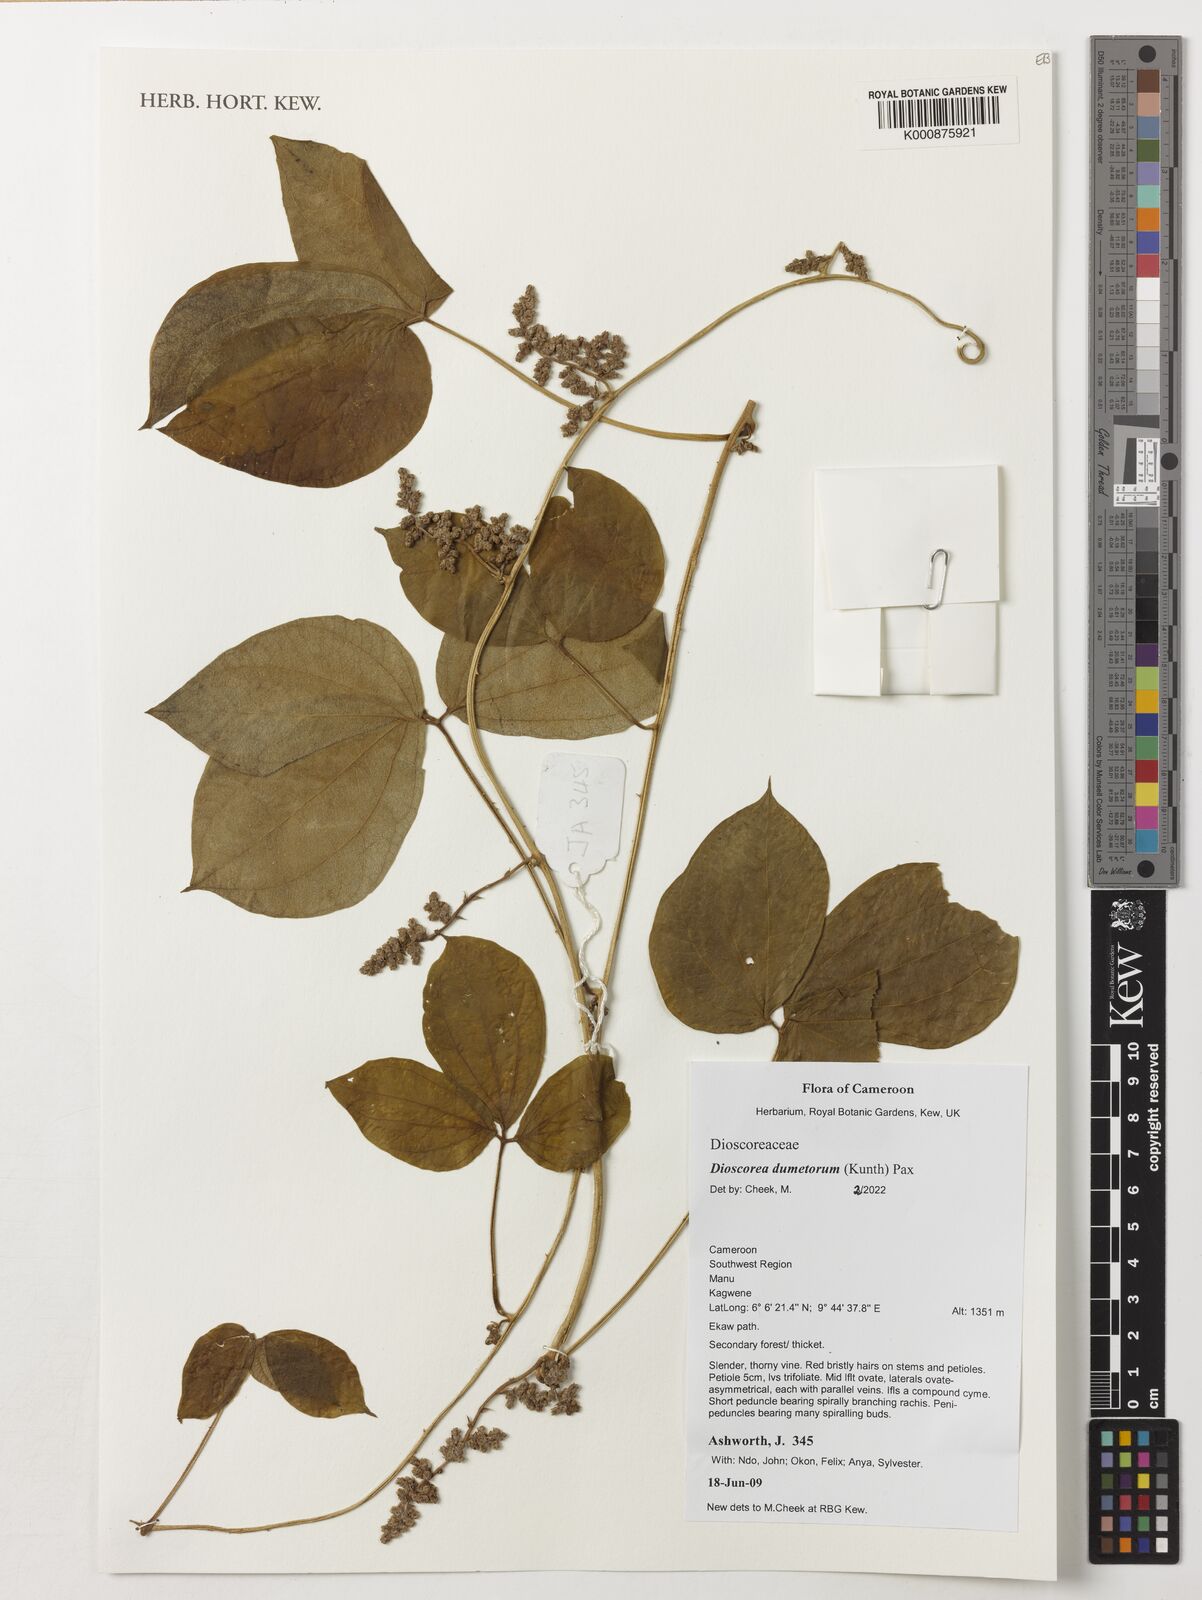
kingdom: Plantae
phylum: Tracheophyta
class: Liliopsida
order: Dioscoreales
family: Dioscoreaceae
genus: Dioscorea
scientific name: Dioscorea dumetorum
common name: African bitter yam
